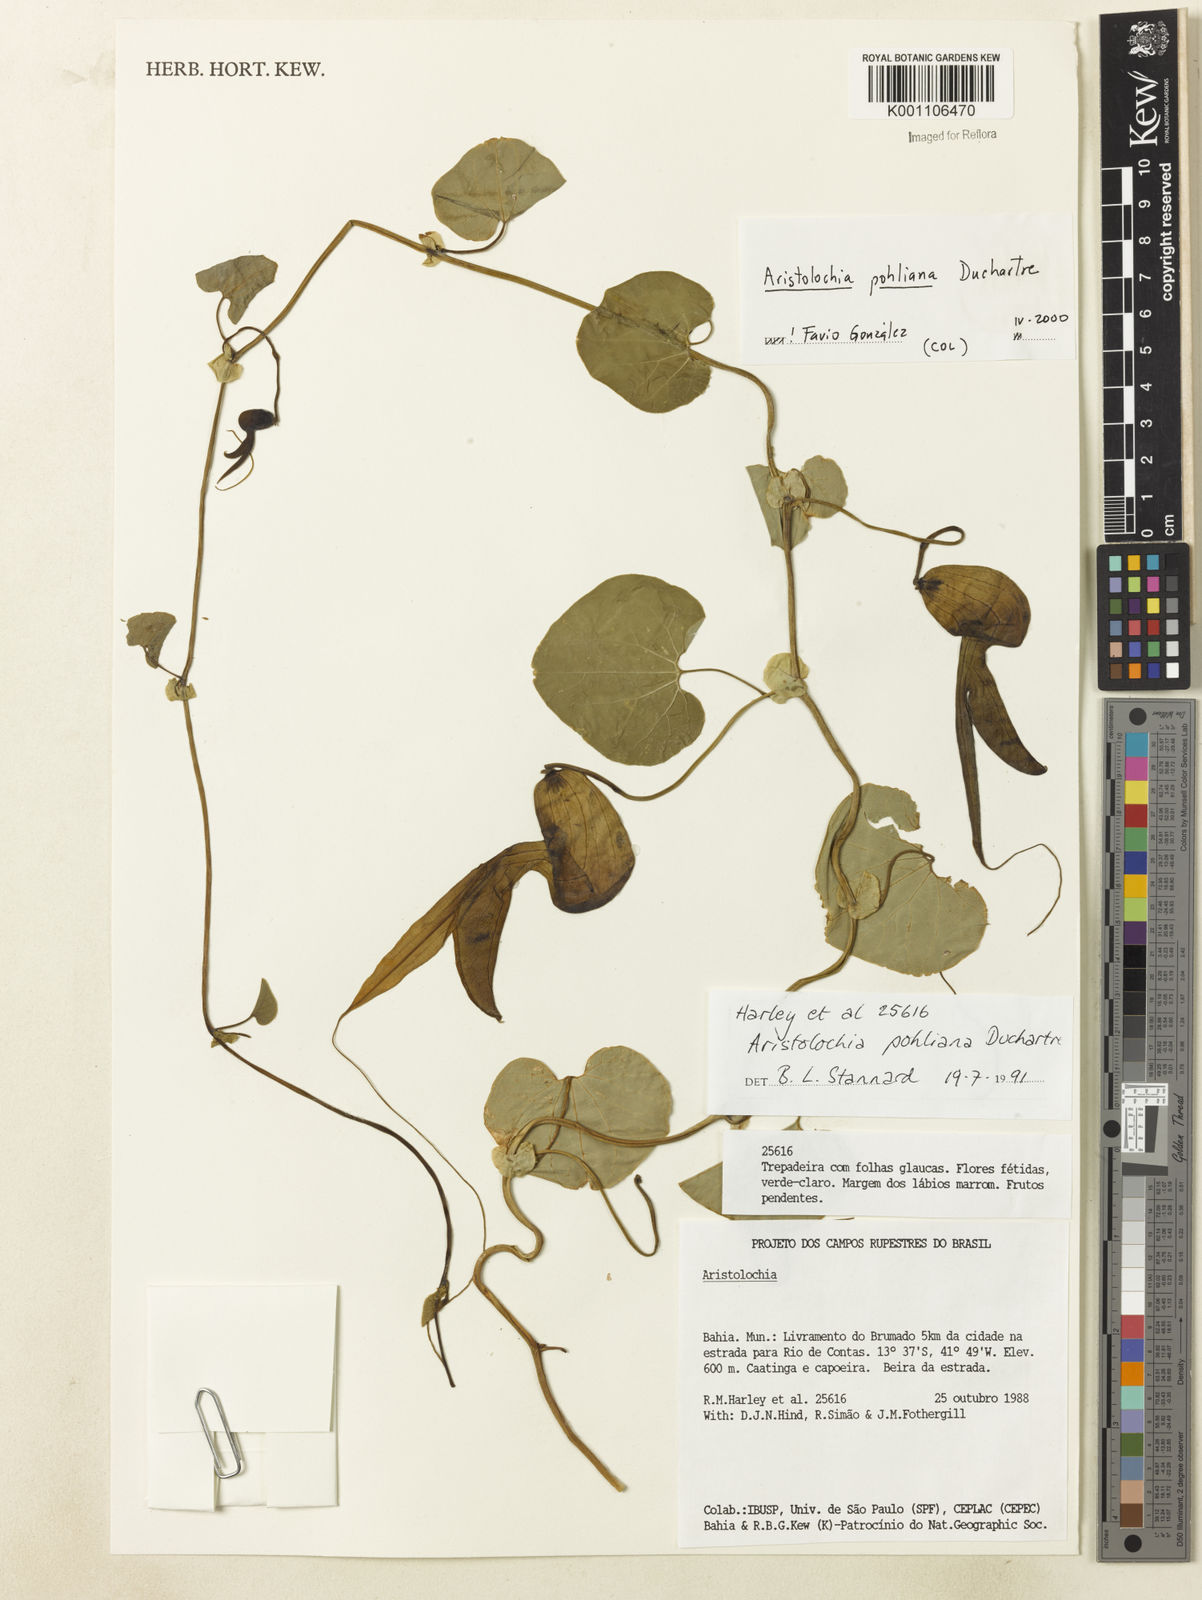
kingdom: Plantae
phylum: Tracheophyta
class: Magnoliopsida
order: Piperales
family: Aristolochiaceae
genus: Aristolochia
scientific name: Aristolochia pohliana
